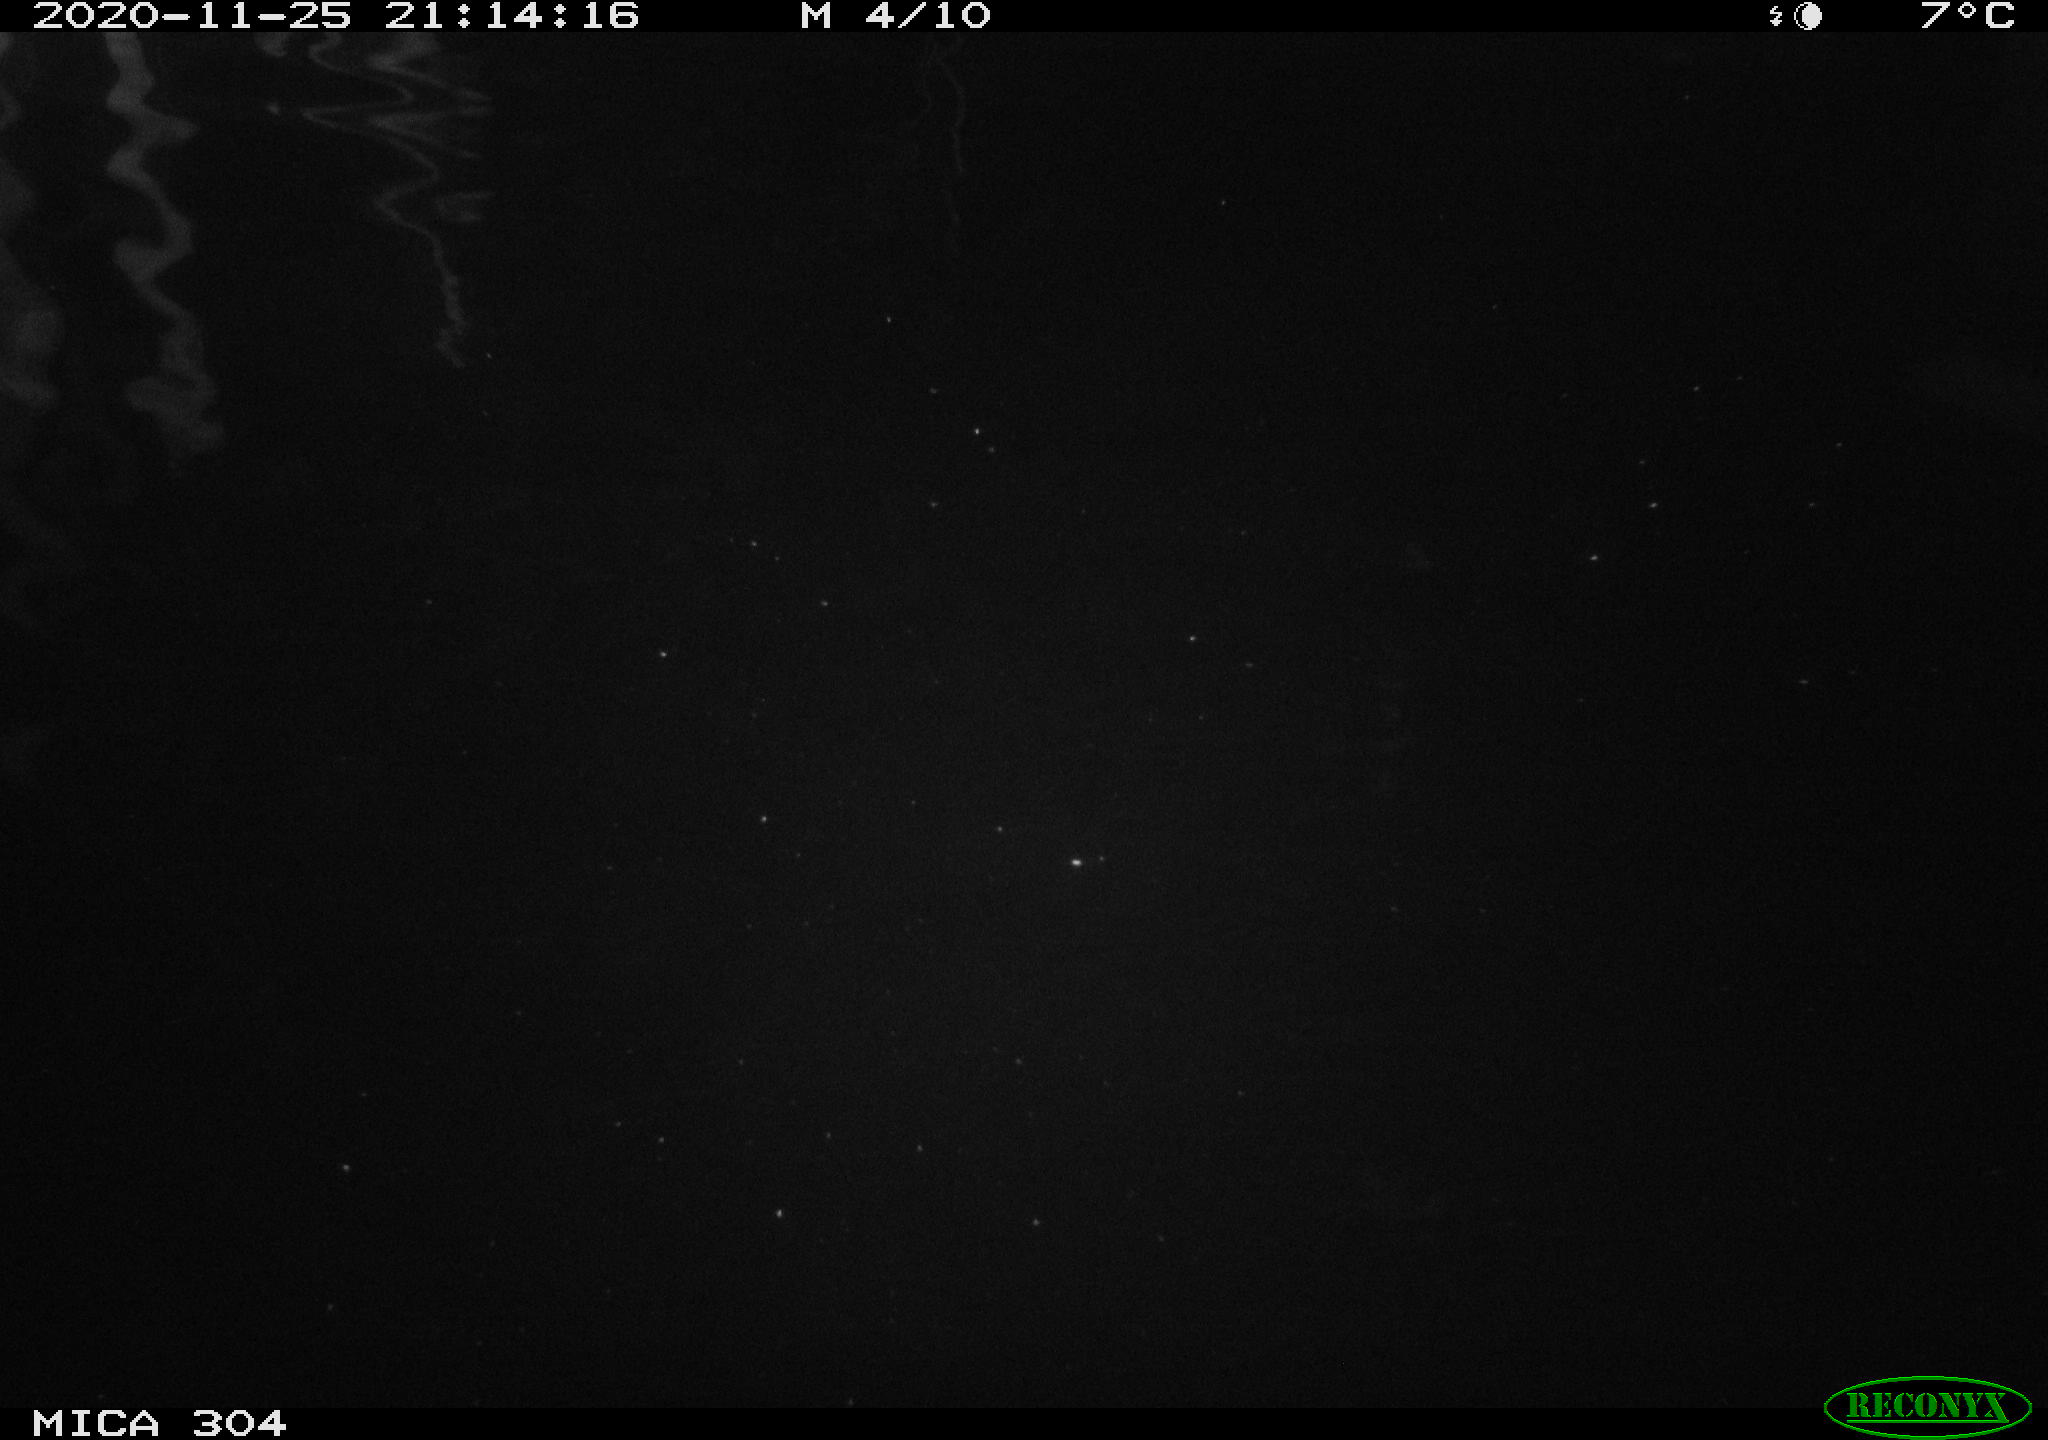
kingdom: Animalia
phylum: Chordata
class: Aves
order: Anseriformes
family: Anatidae
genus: Anas
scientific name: Anas platyrhynchos
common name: Mallard
